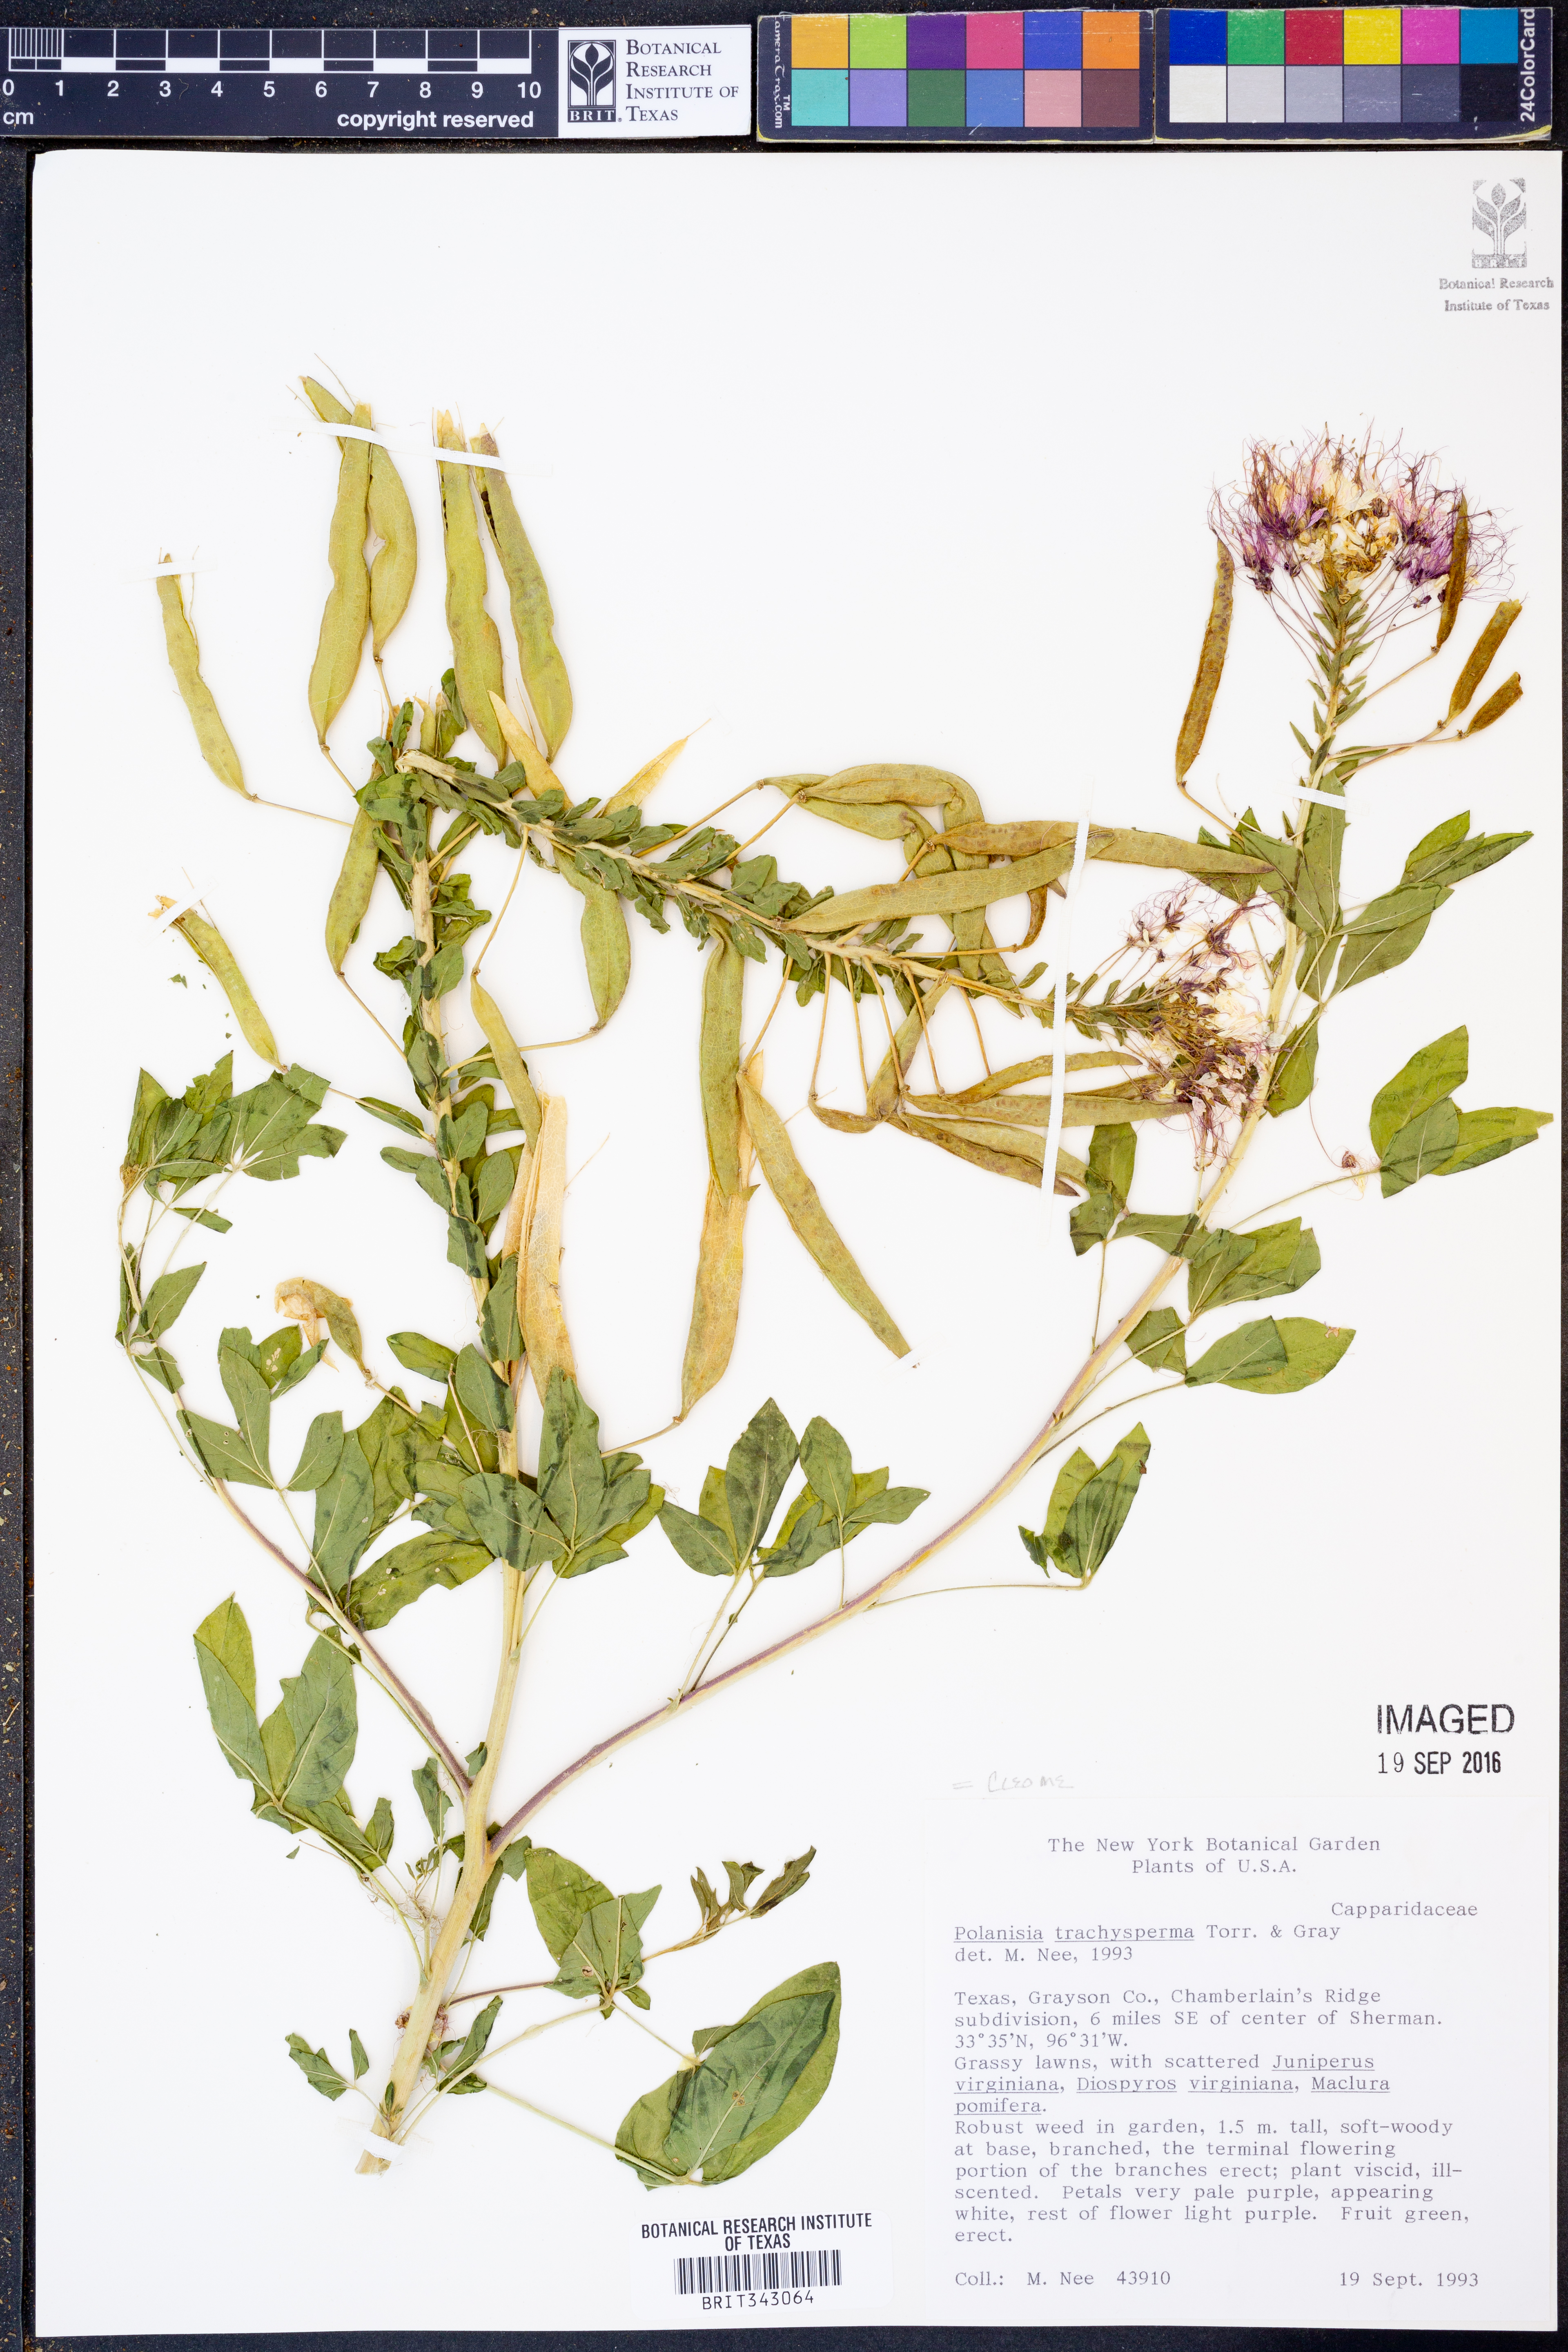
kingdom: Plantae
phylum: Tracheophyta
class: Magnoliopsida
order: Brassicales
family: Cleomaceae
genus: Polanisia
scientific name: Polanisia dodecandra
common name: Clammyweed
